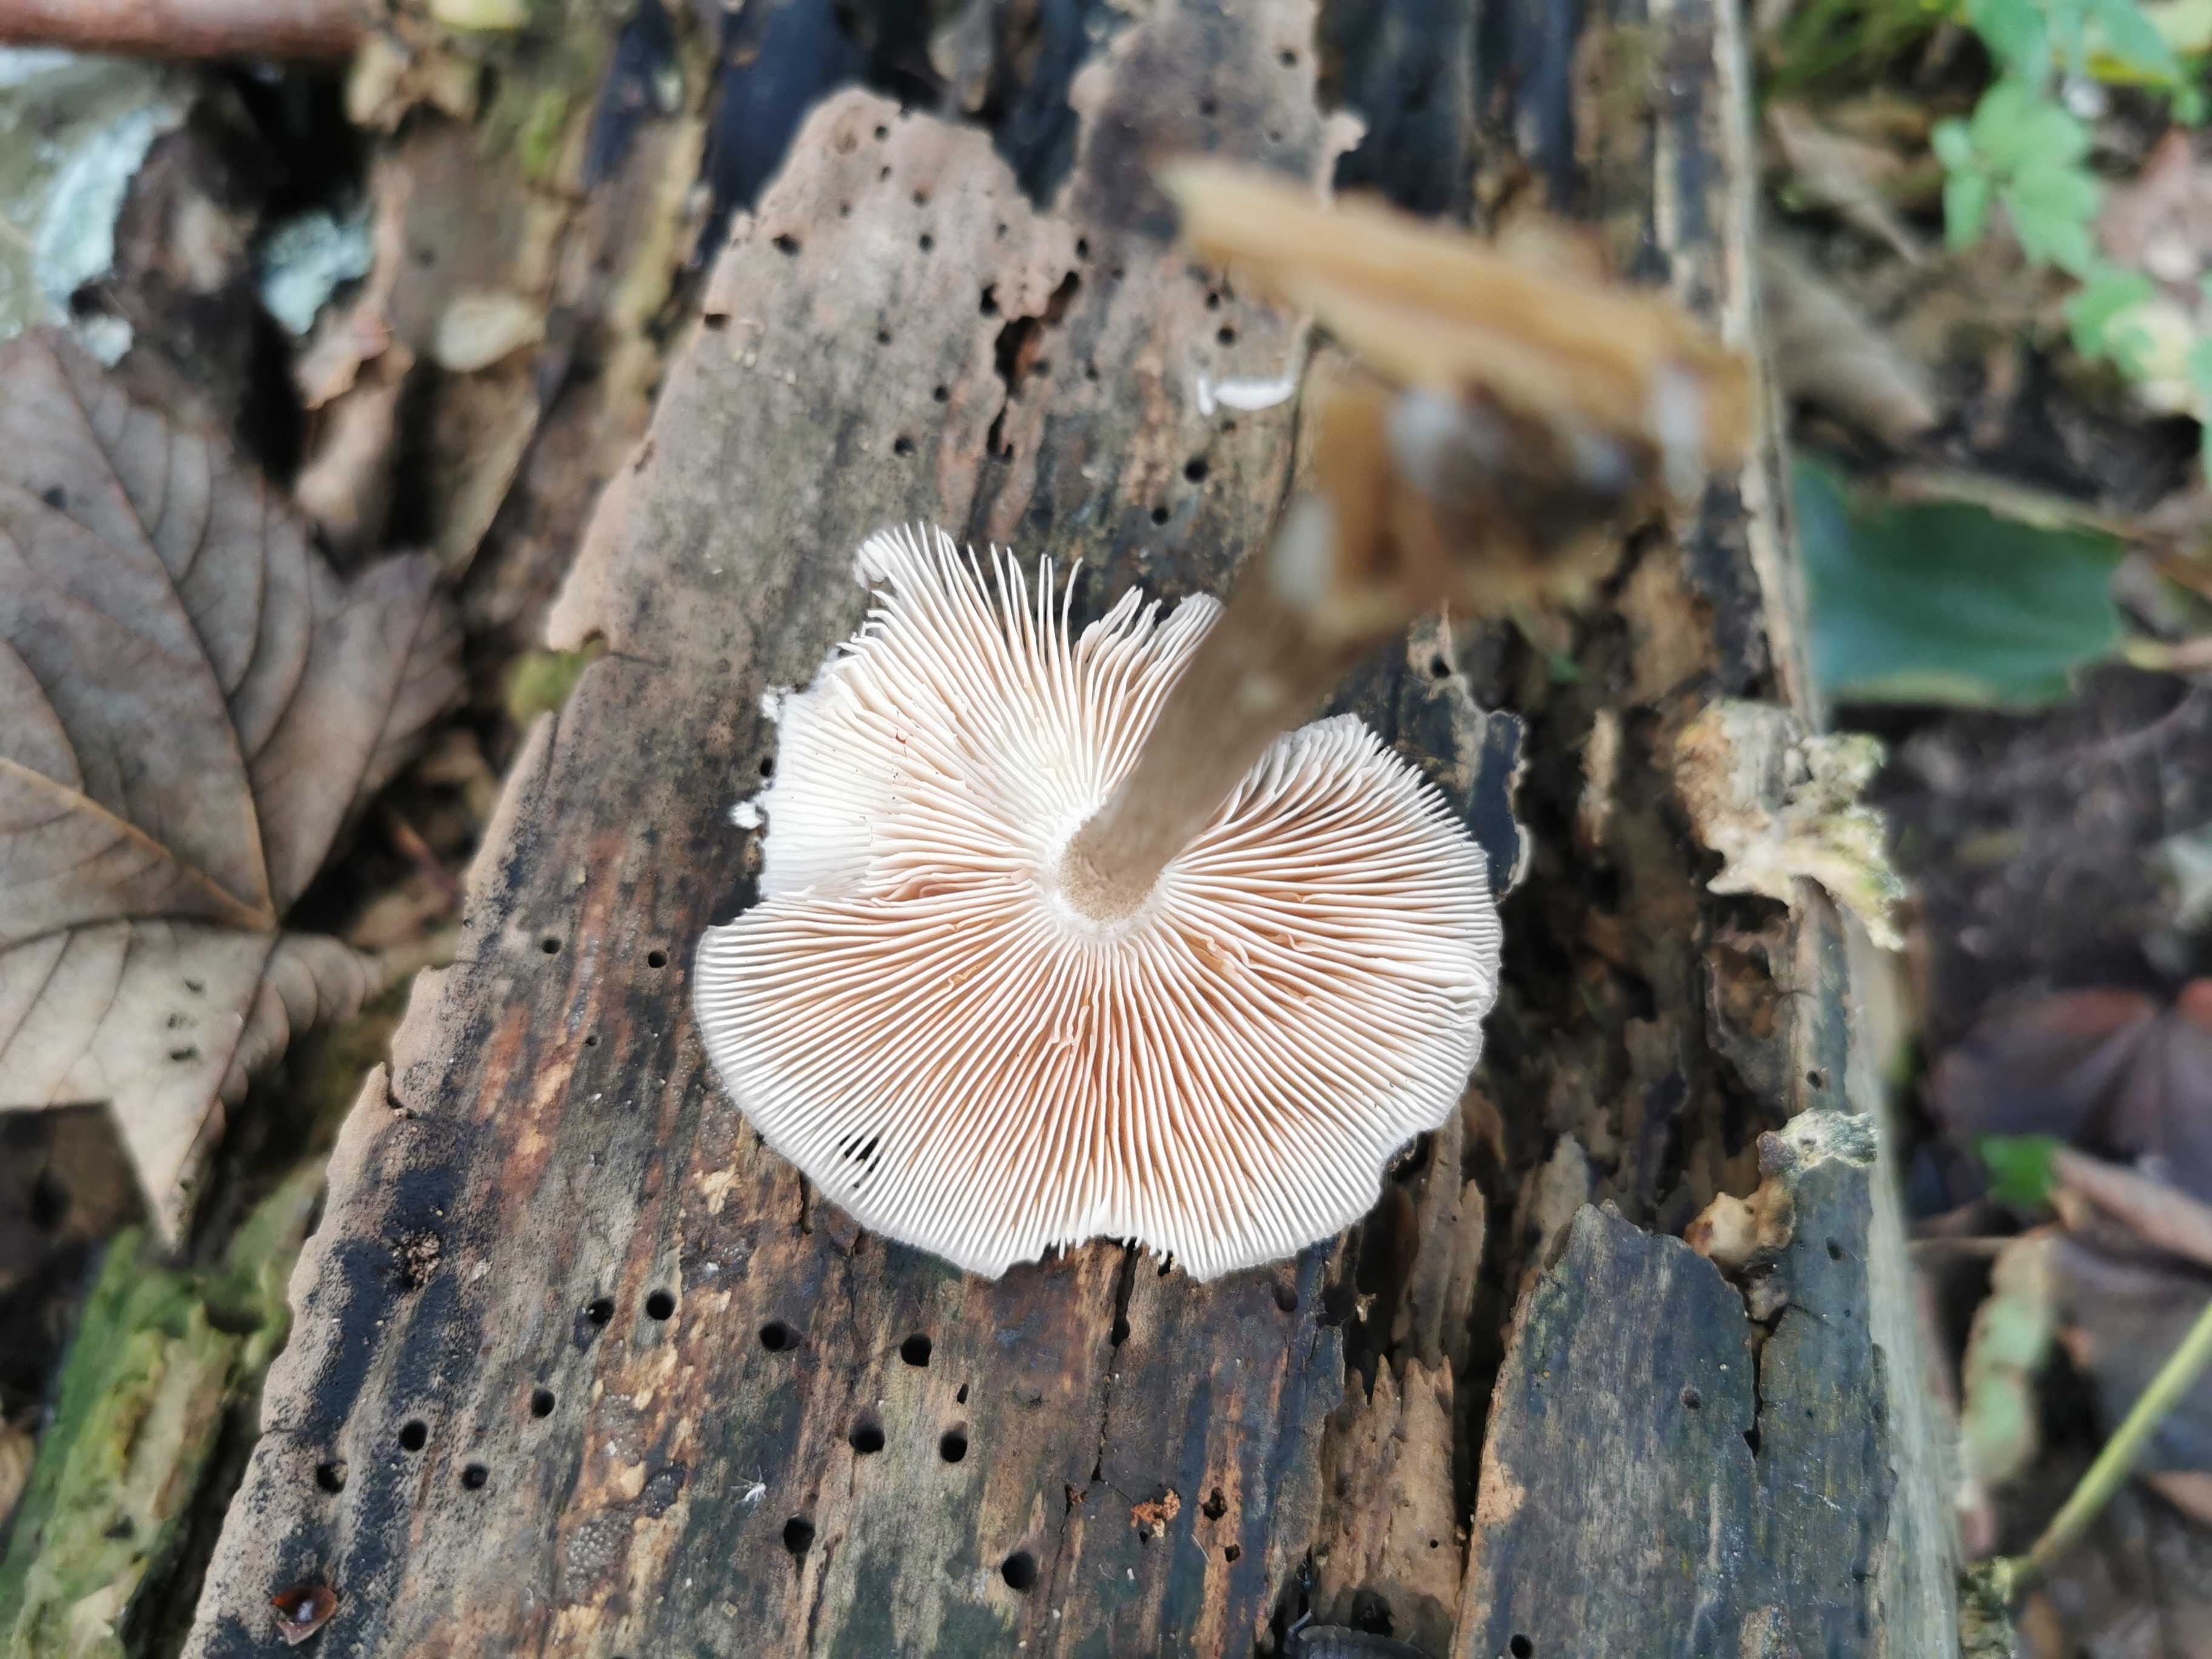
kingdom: Fungi
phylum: Basidiomycota
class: Agaricomycetes
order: Agaricales
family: Pluteaceae
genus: Pluteus
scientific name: Pluteus cervinus
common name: sodfarvet skærmhat
